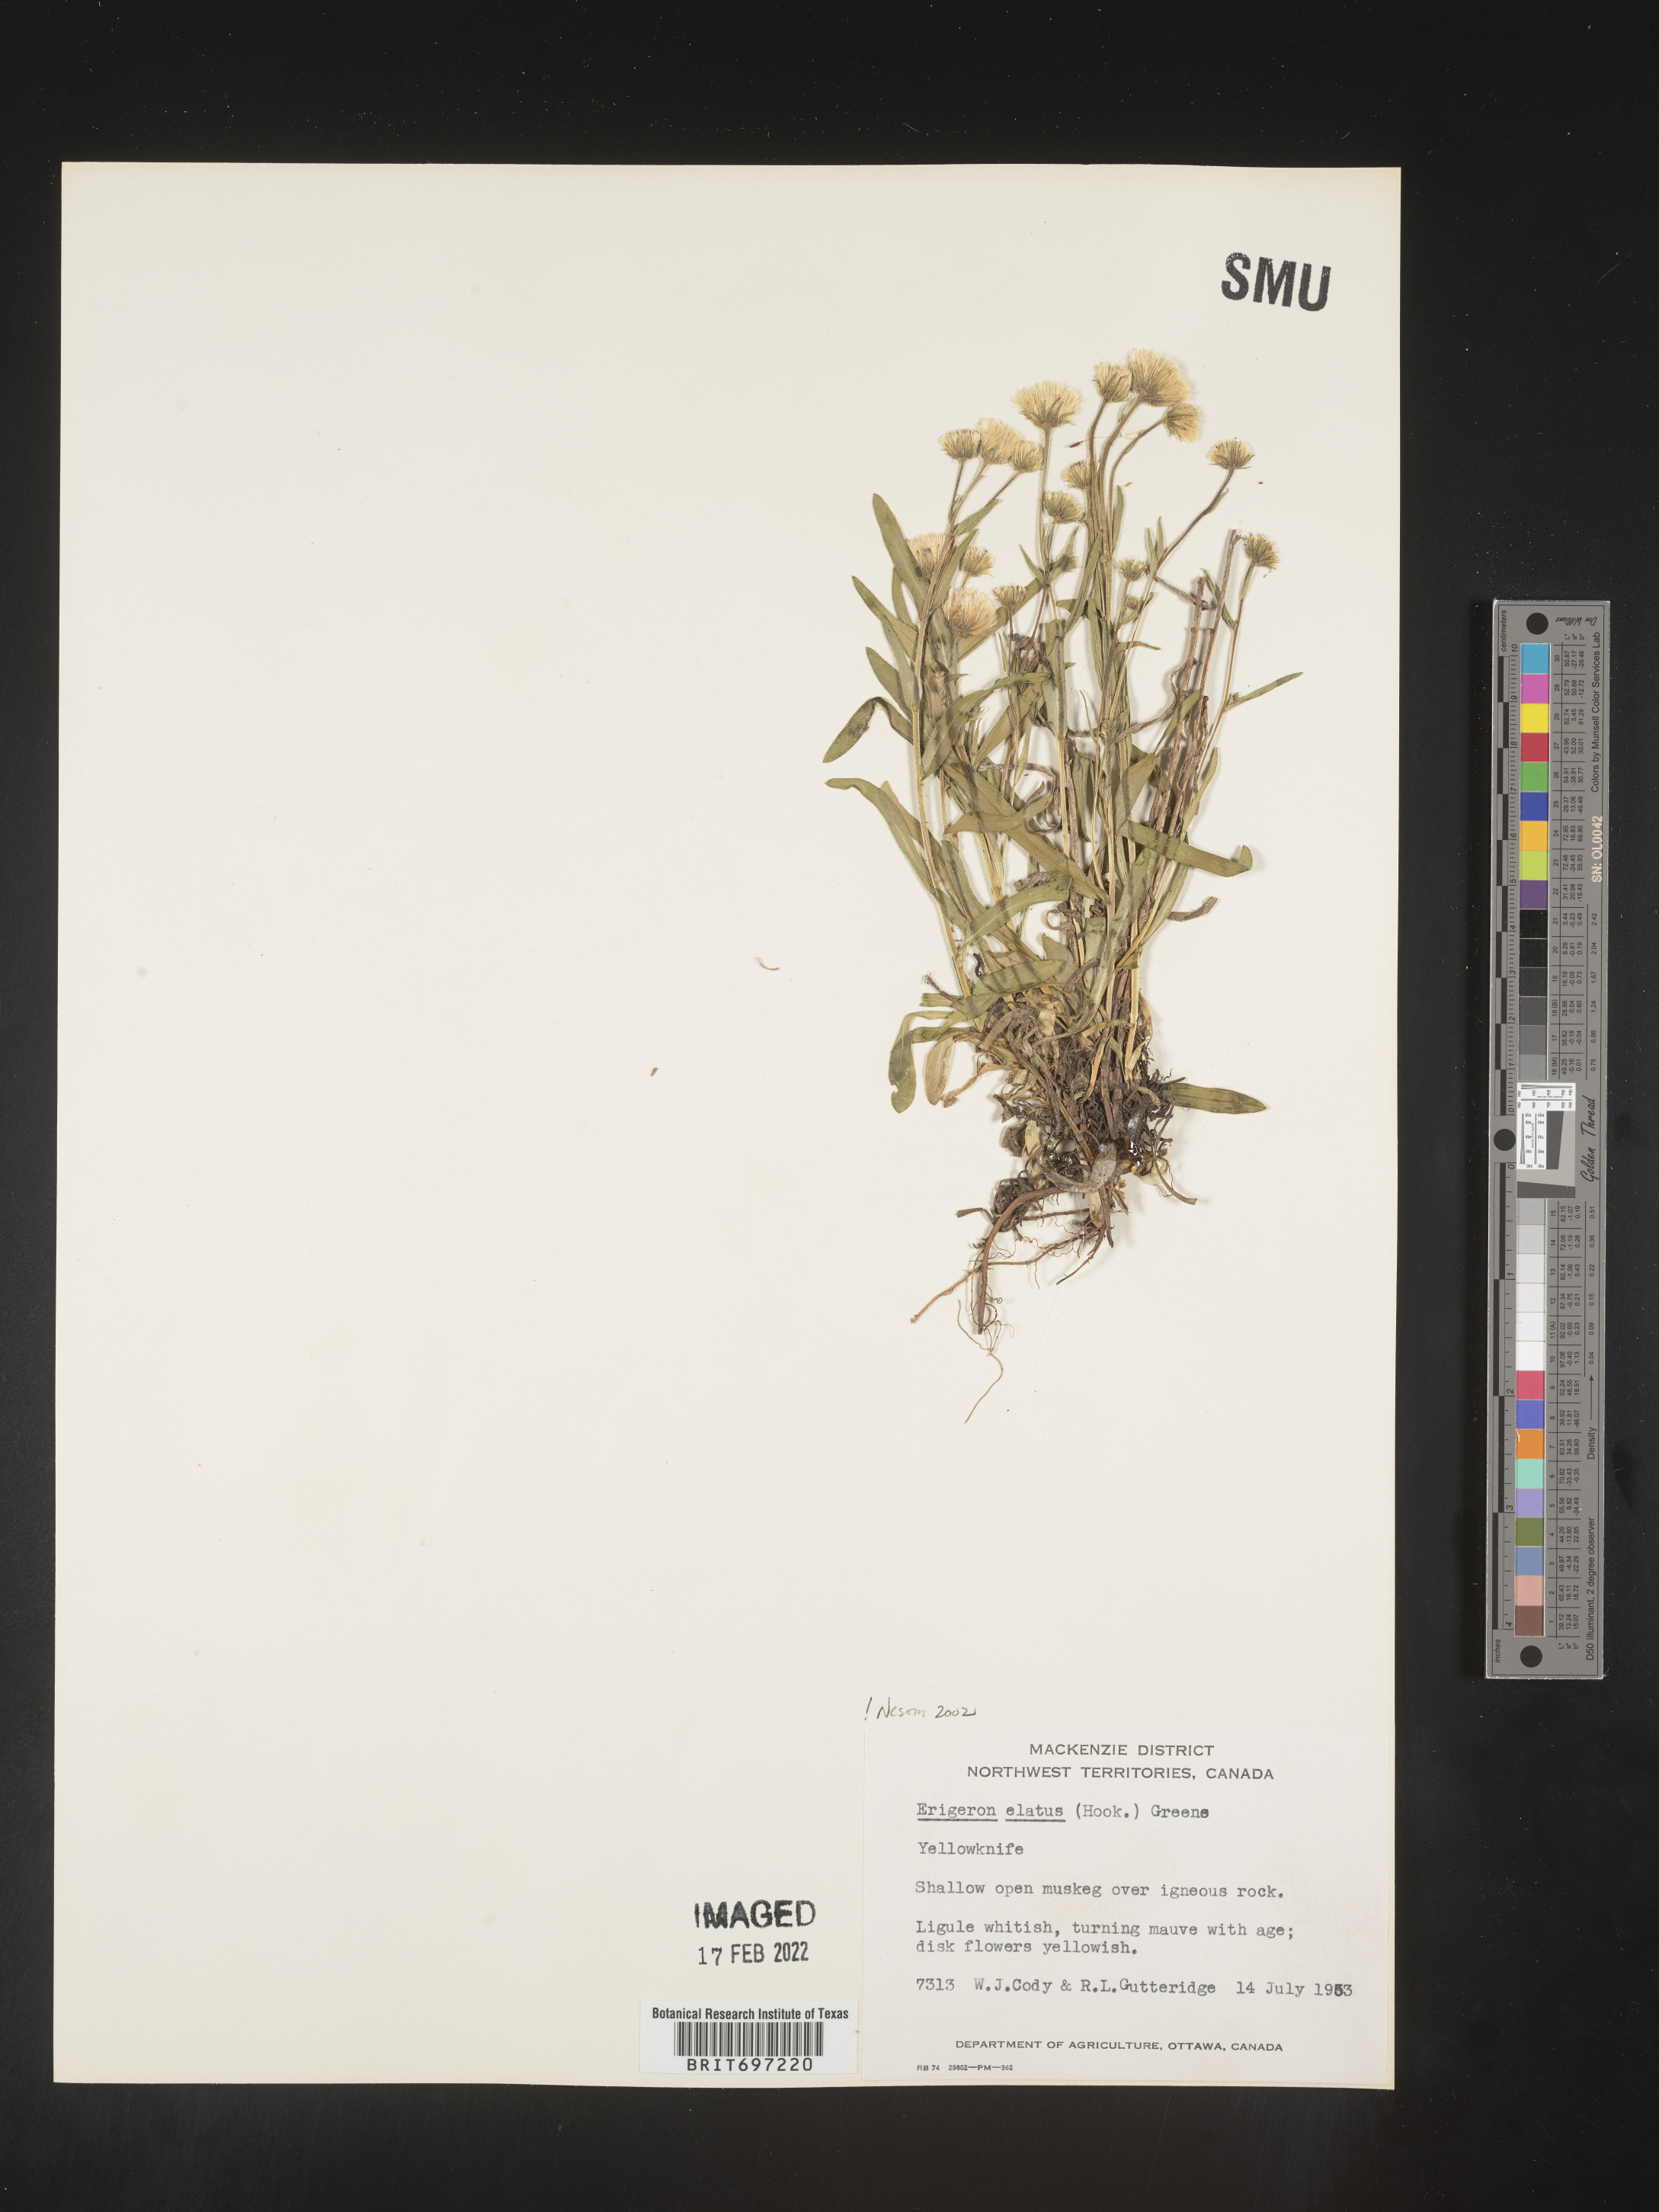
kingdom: Plantae
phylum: Tracheophyta
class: Magnoliopsida
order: Asterales
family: Asteraceae
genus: Erigeron
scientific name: Erigeron elatus
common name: Swamp fleabane
